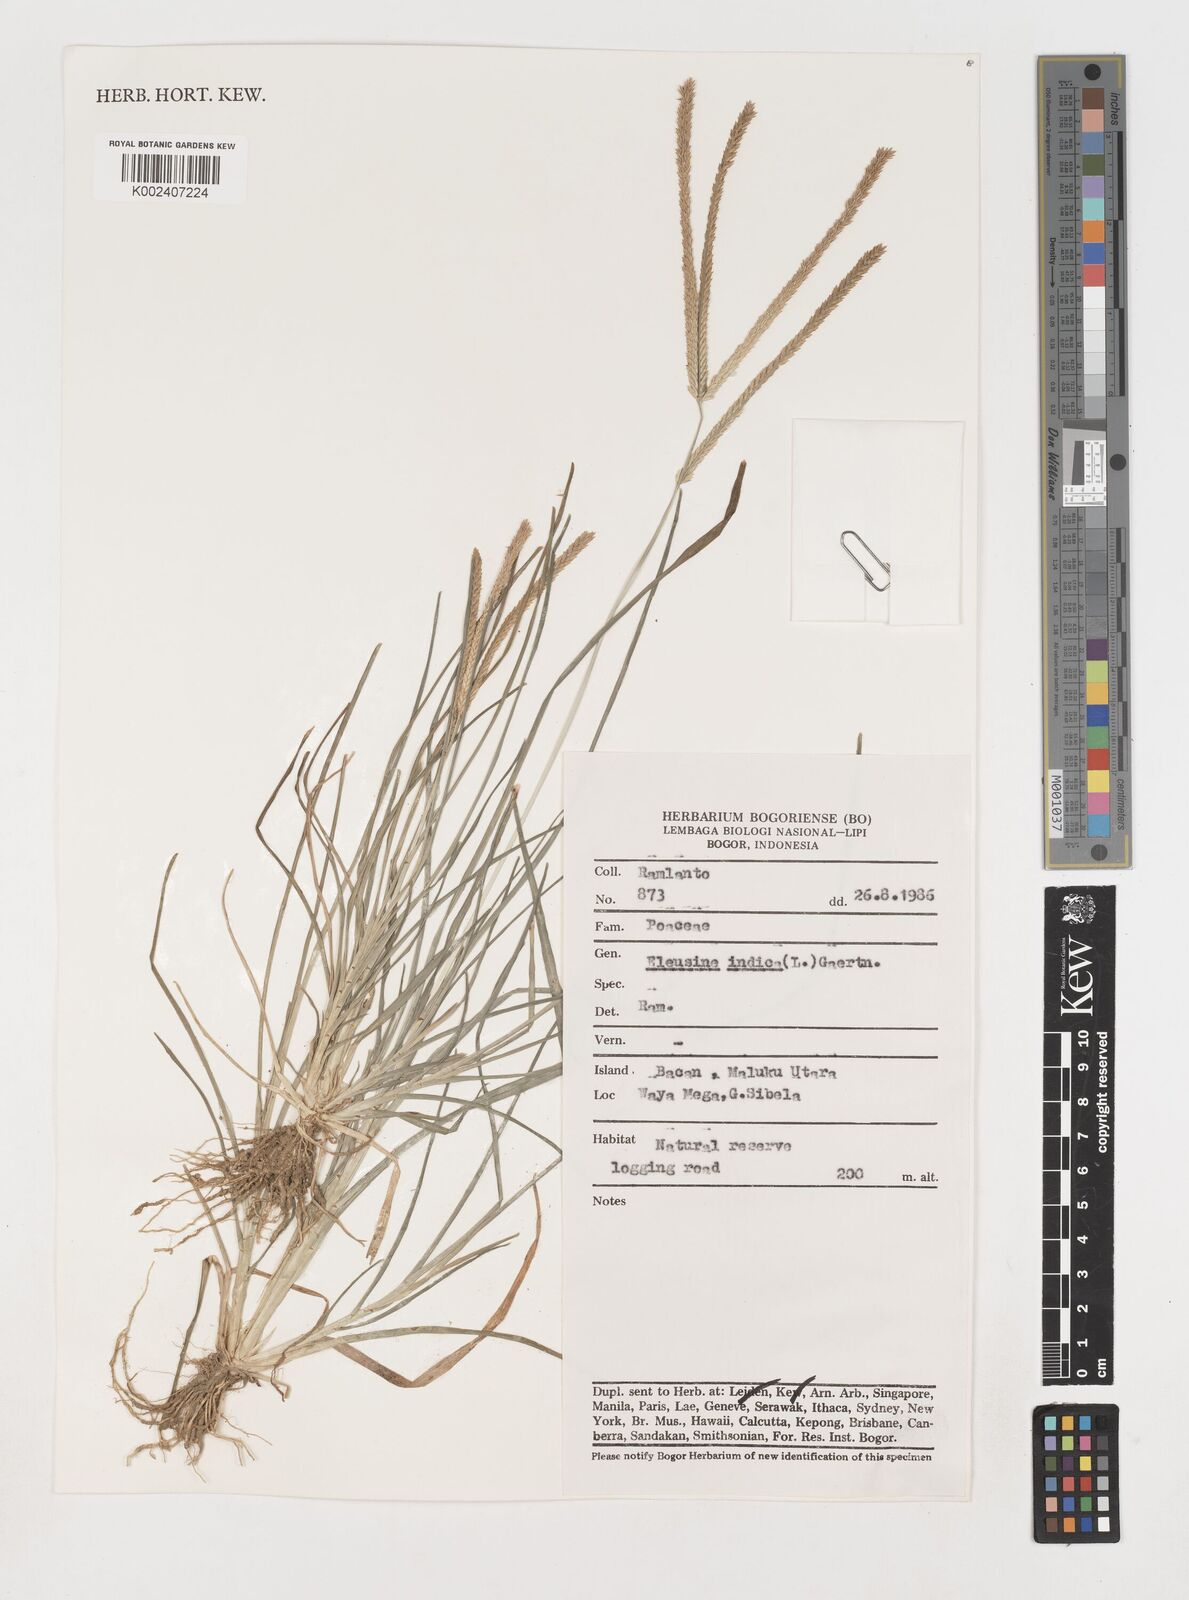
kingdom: Plantae
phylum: Tracheophyta
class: Liliopsida
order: Poales
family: Poaceae
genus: Eleusine
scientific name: Eleusine indica
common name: Yard-grass
